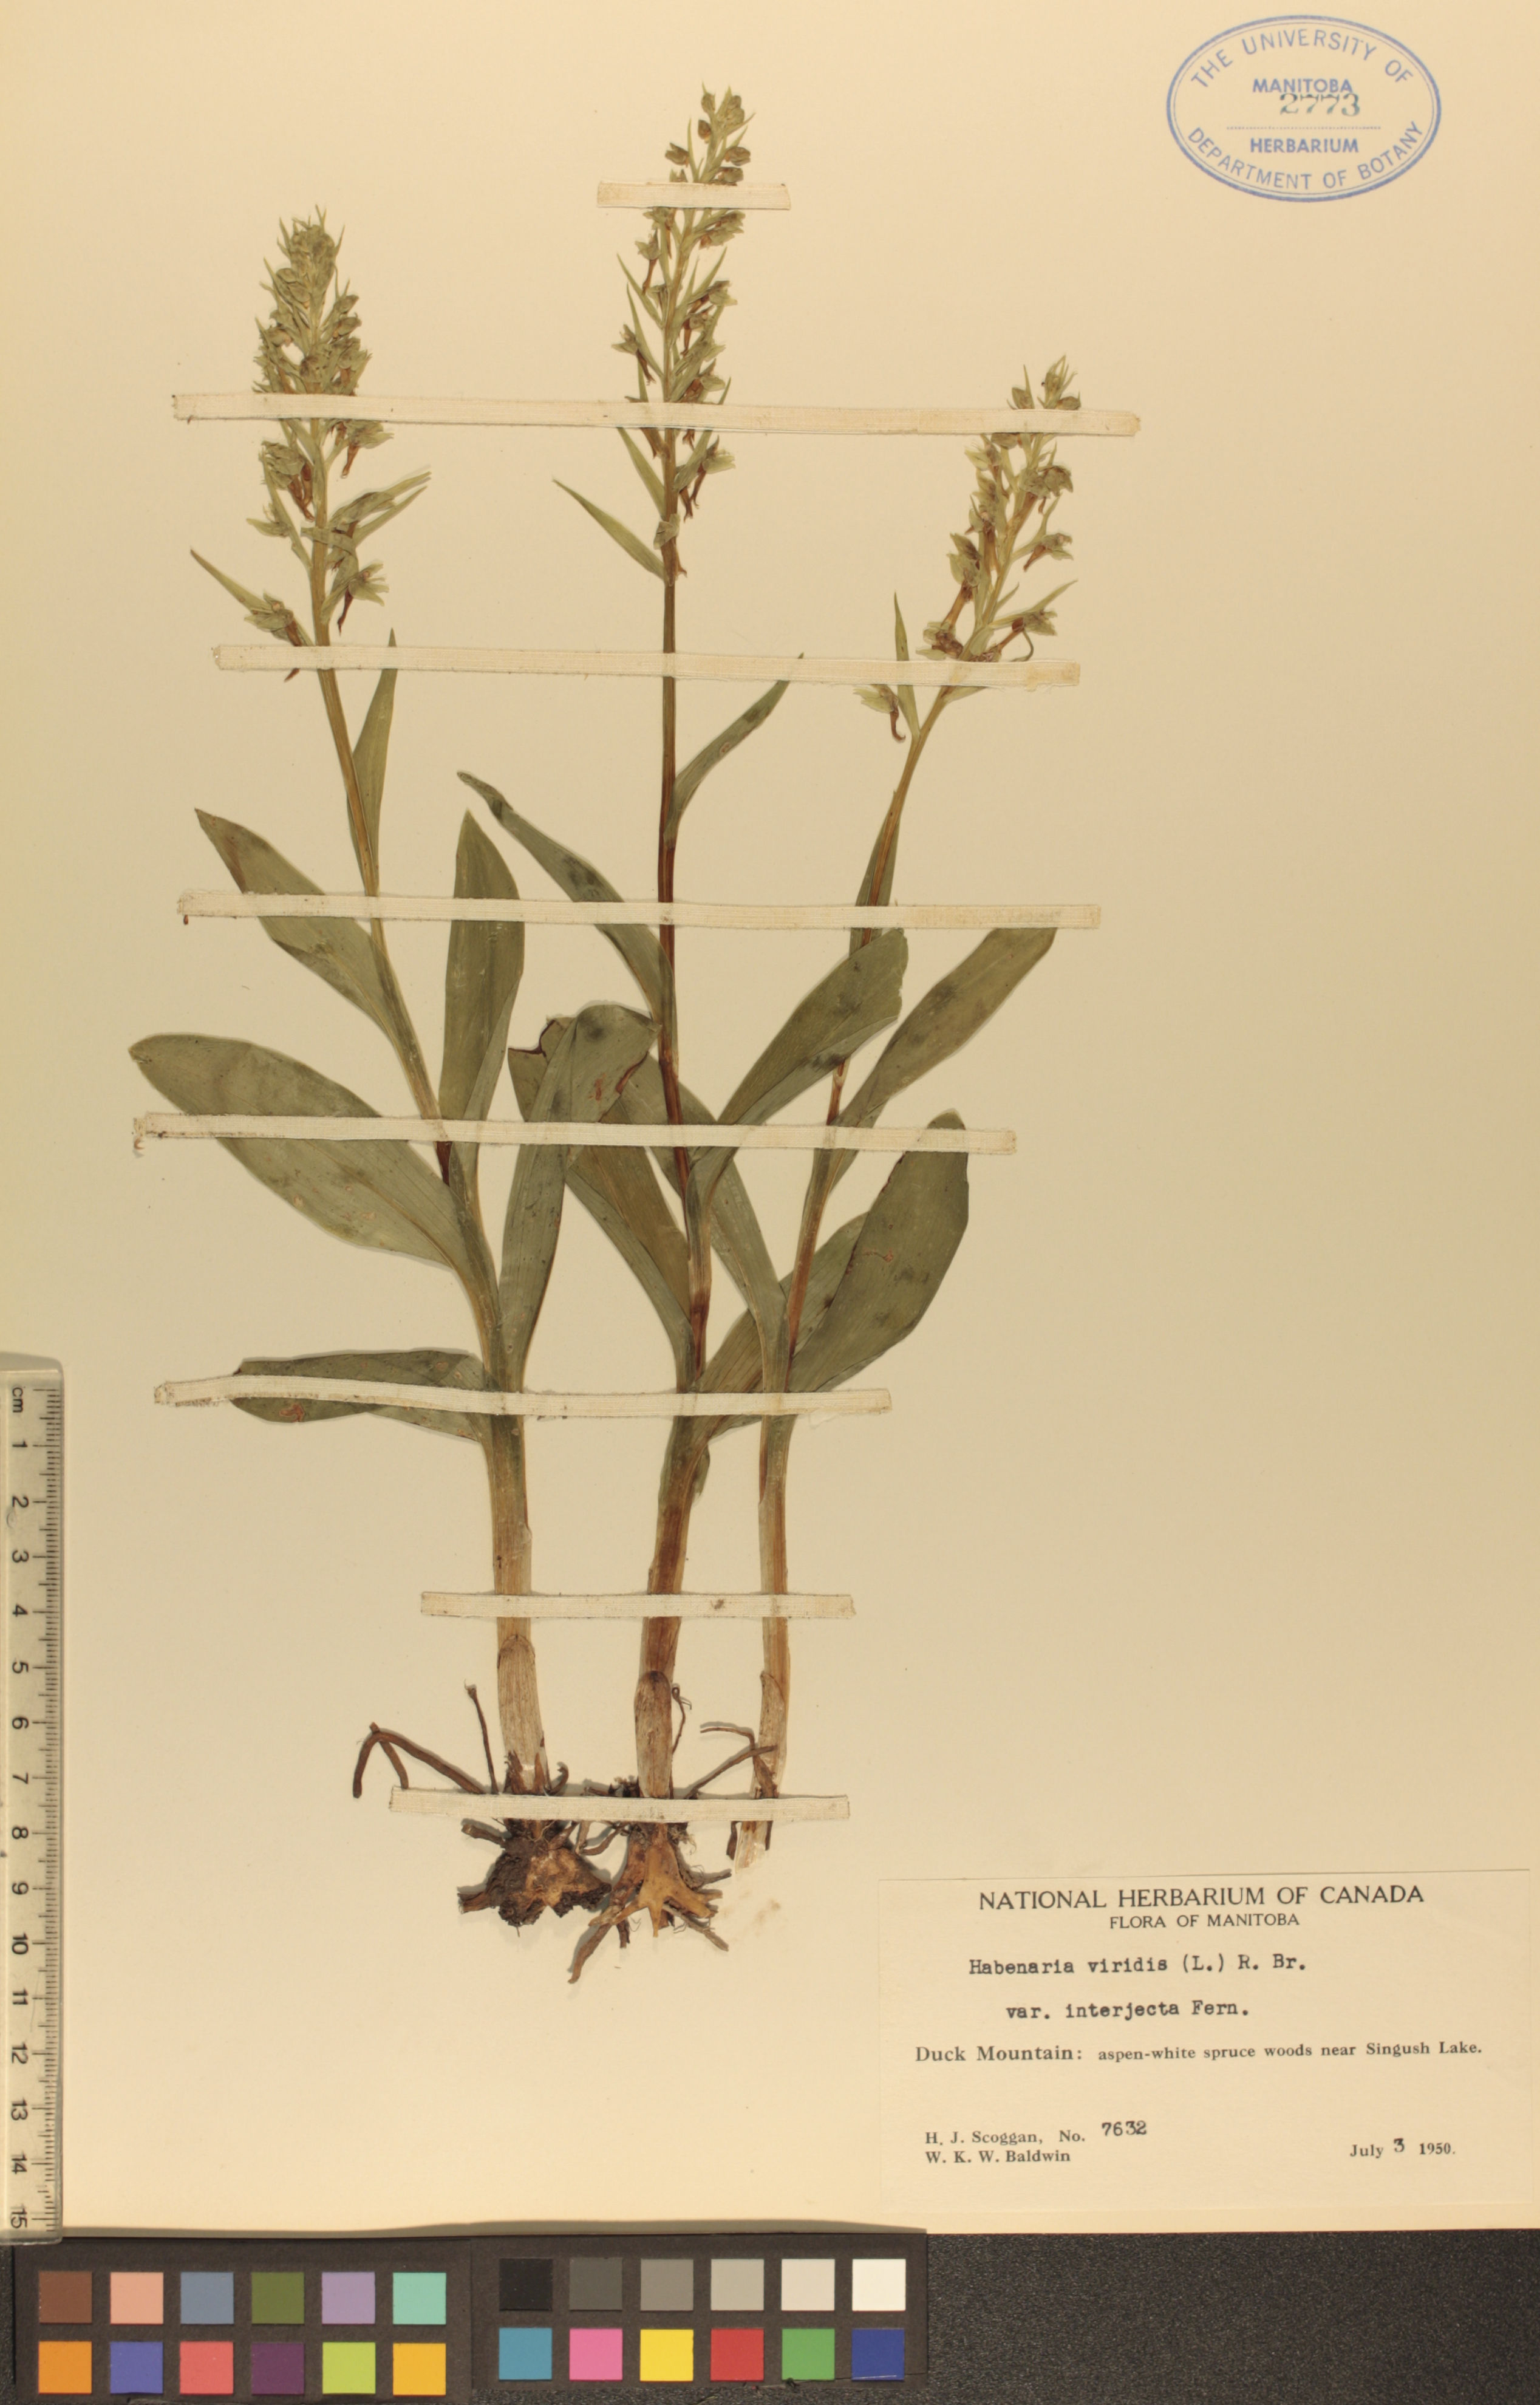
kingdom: Plantae
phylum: Tracheophyta
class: Liliopsida
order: Asparagales
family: Orchidaceae
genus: Dactylorhiza
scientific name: Dactylorhiza viridis
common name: Longbract frog orchid
